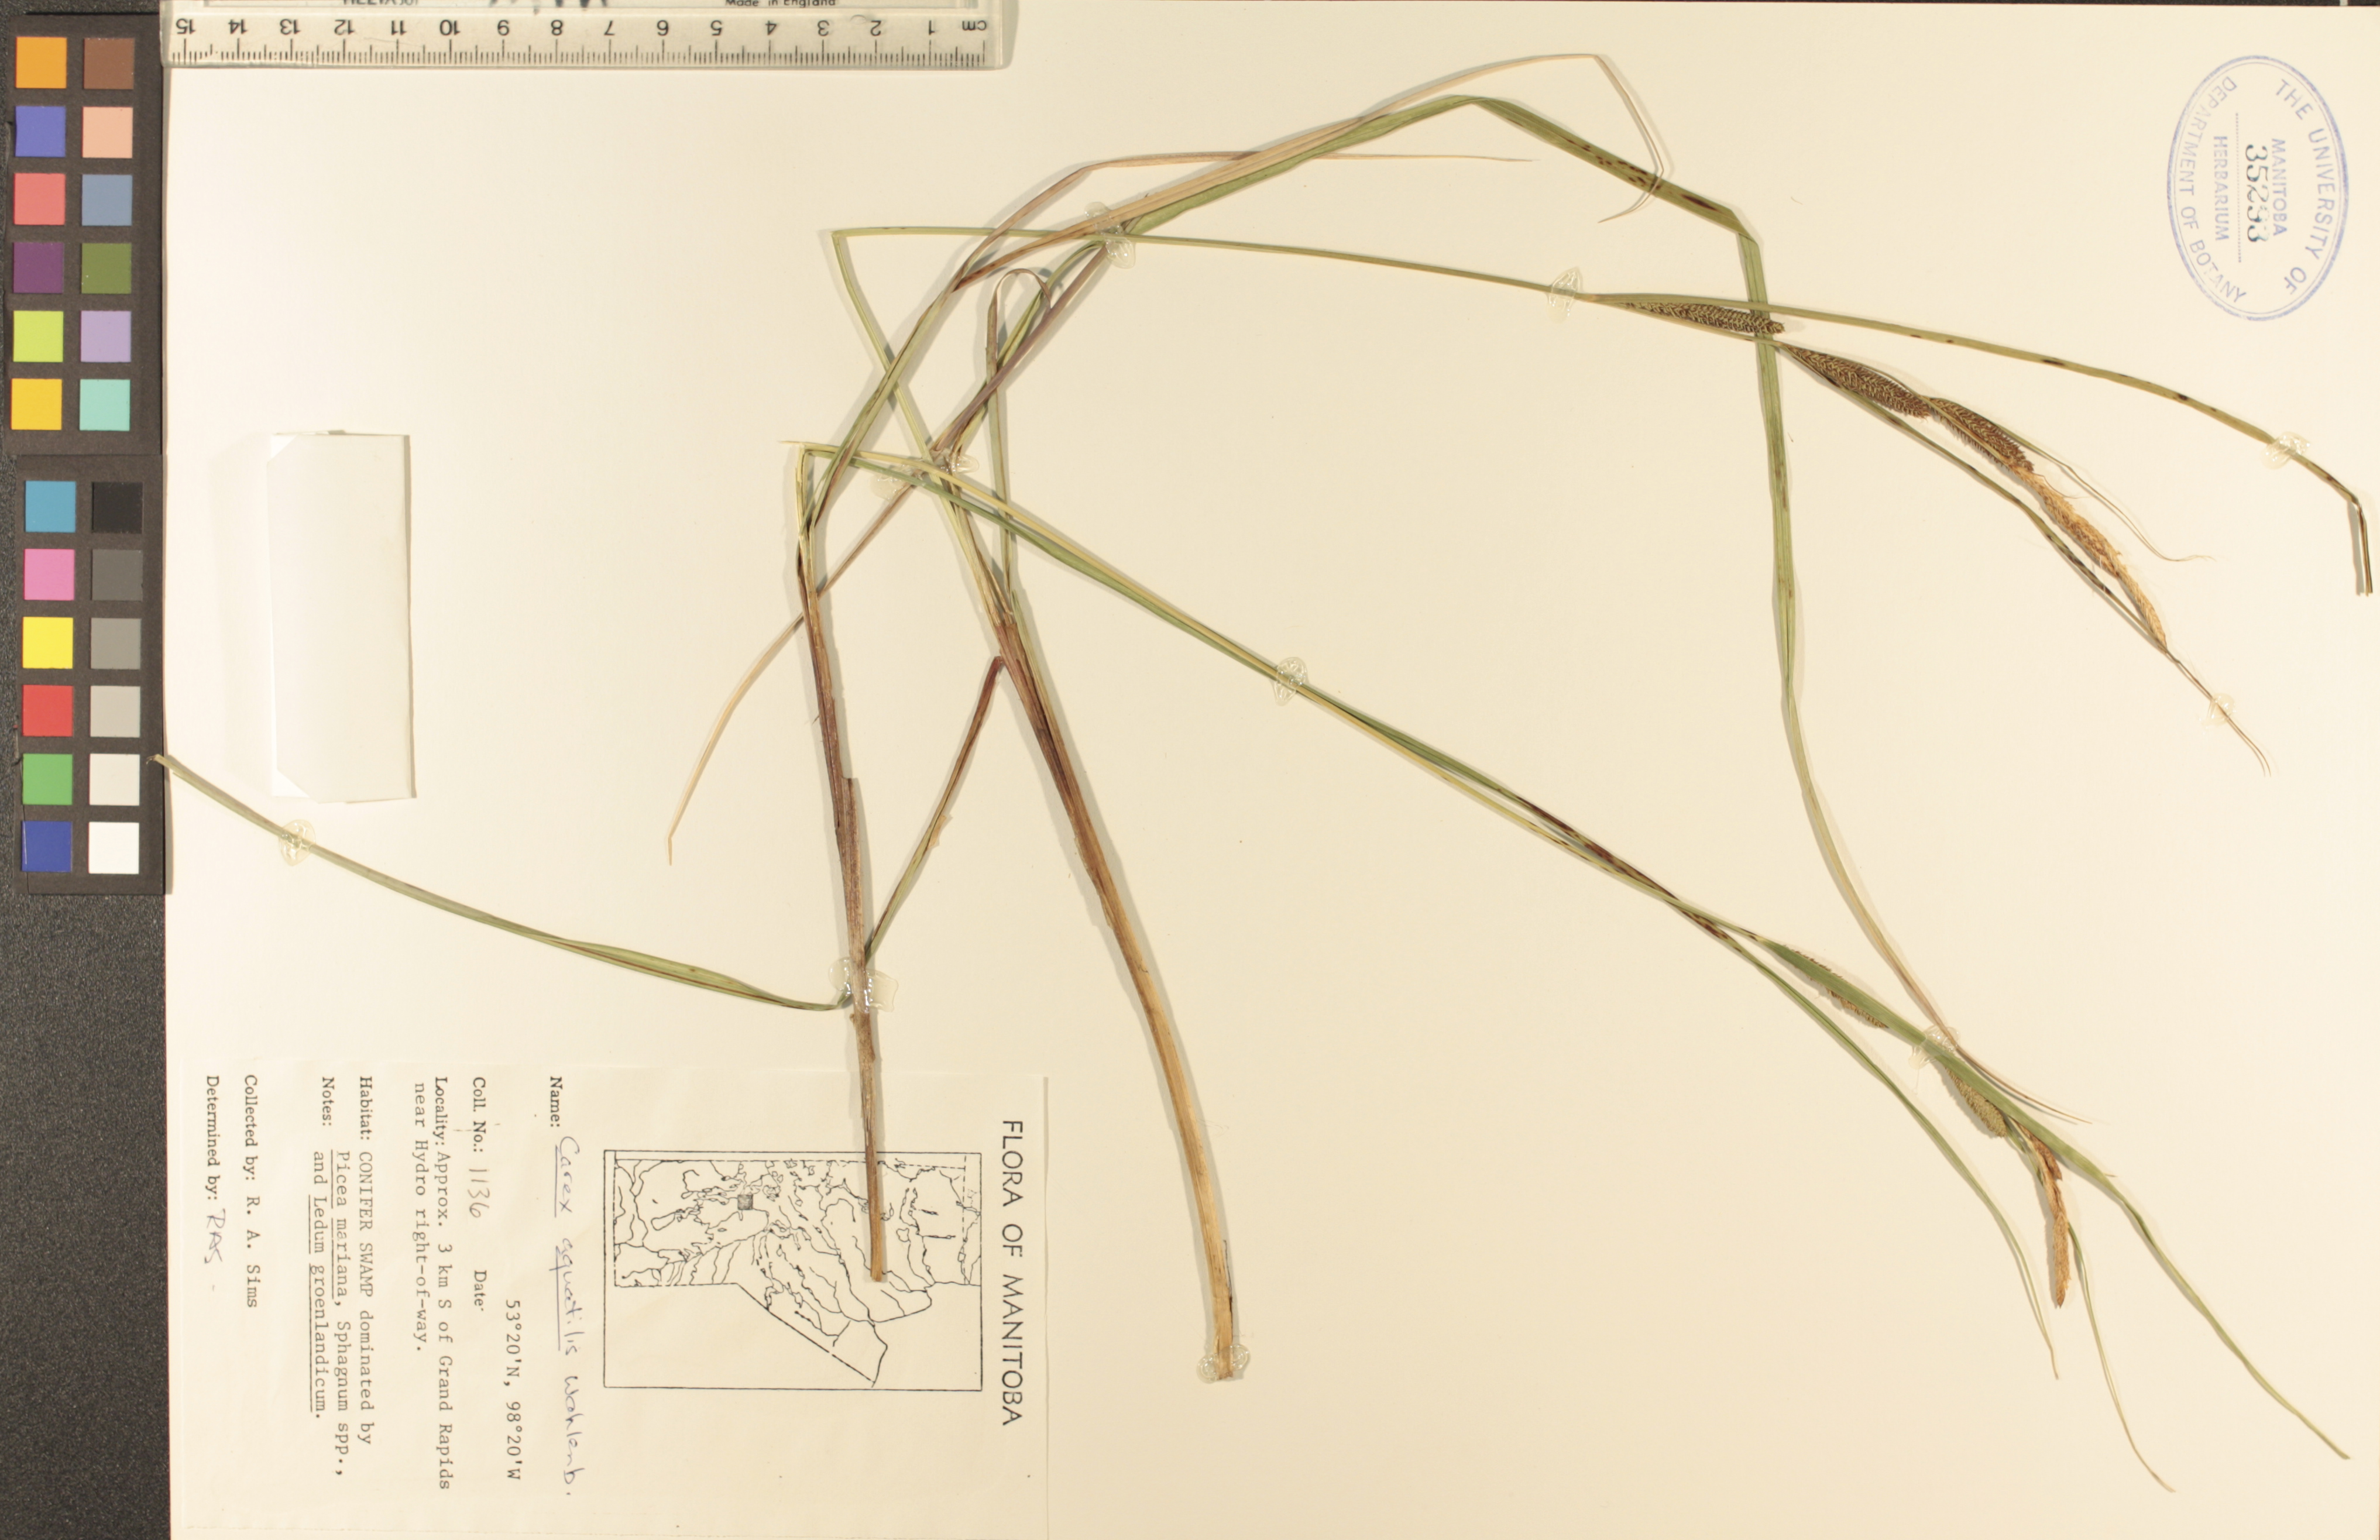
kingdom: Plantae
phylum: Tracheophyta
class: Liliopsida
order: Poales
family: Cyperaceae
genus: Carex
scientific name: Carex aquatilis
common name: Water sedge
